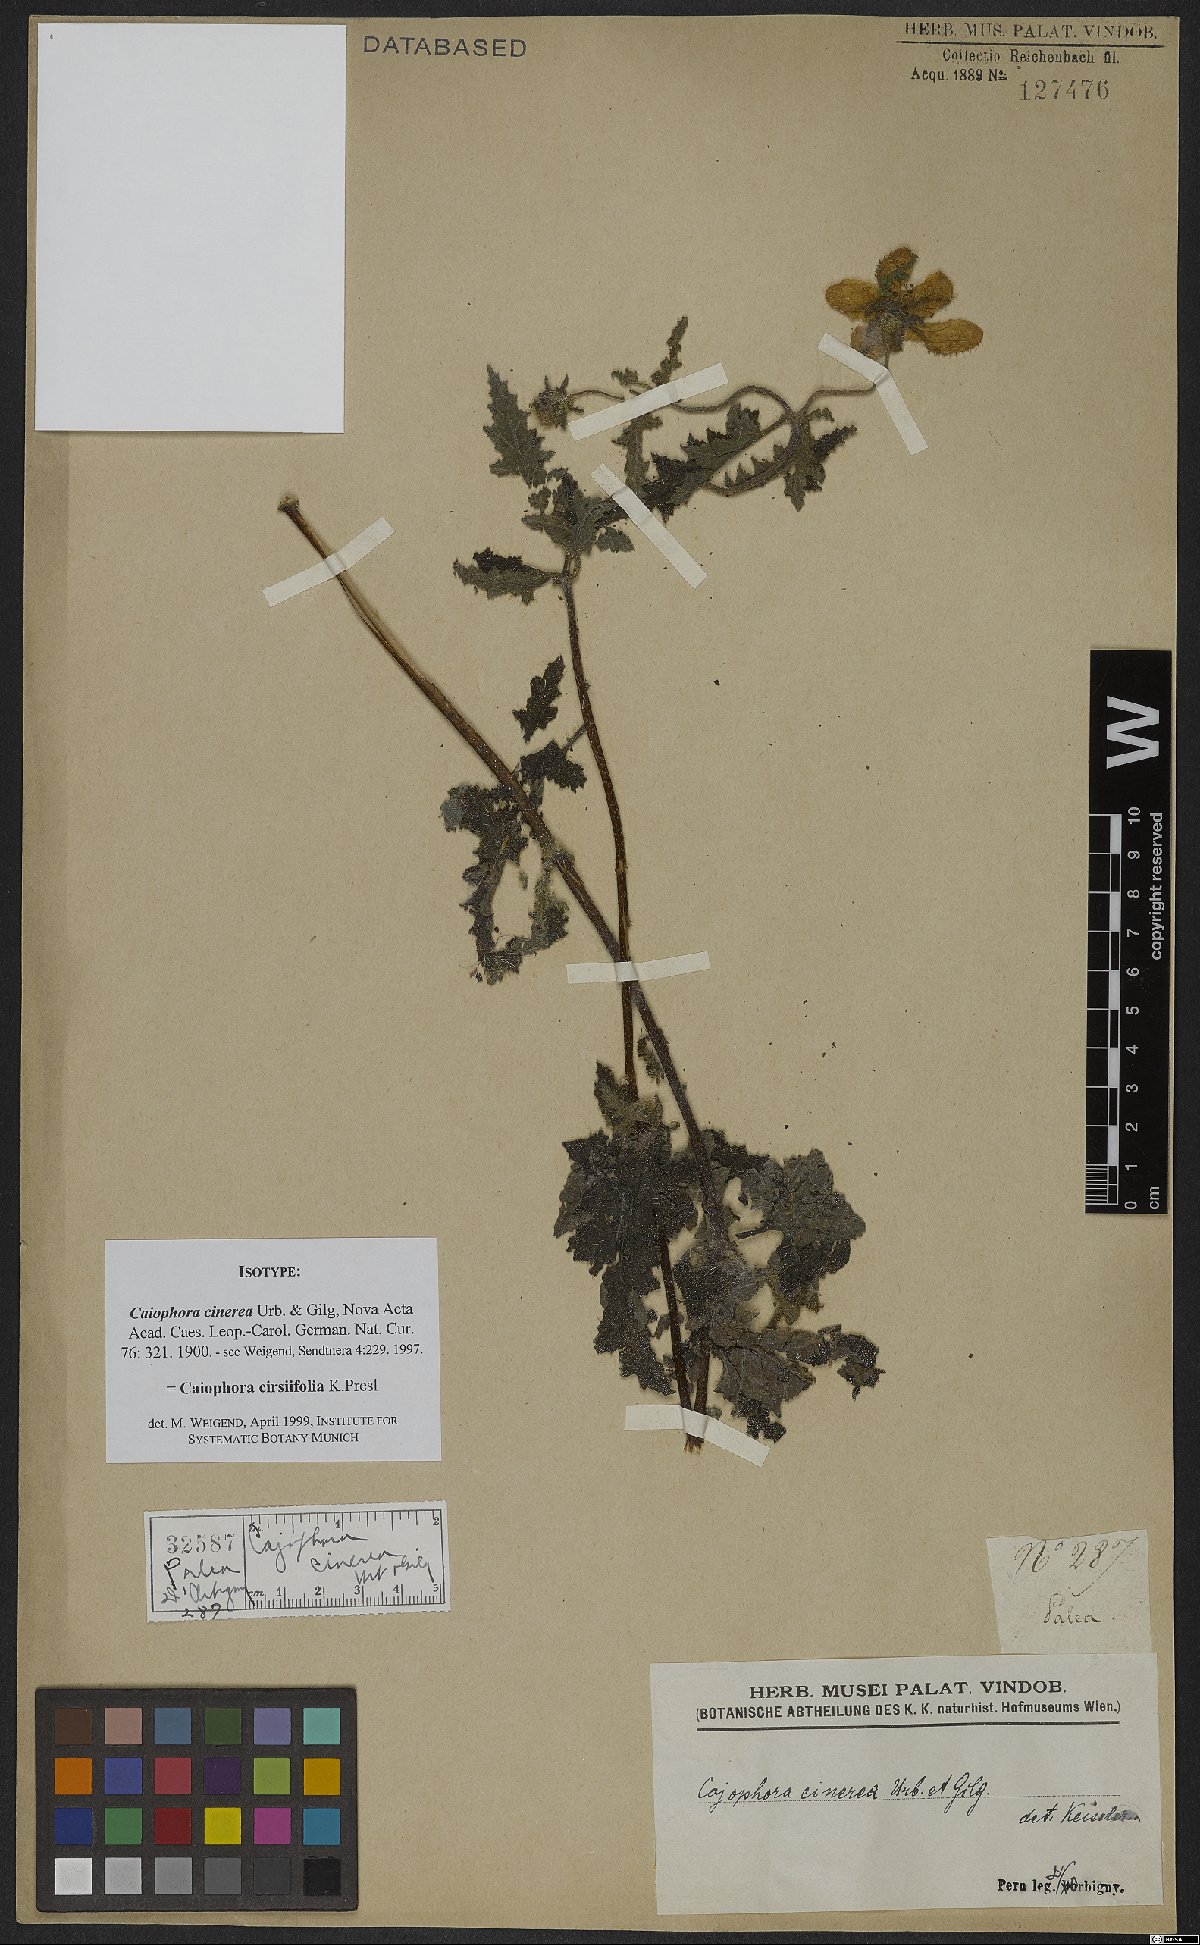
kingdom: Plantae
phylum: Tracheophyta
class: Magnoliopsida
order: Cornales
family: Loasaceae
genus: Caiophora
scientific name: Caiophora cirsiifolia
